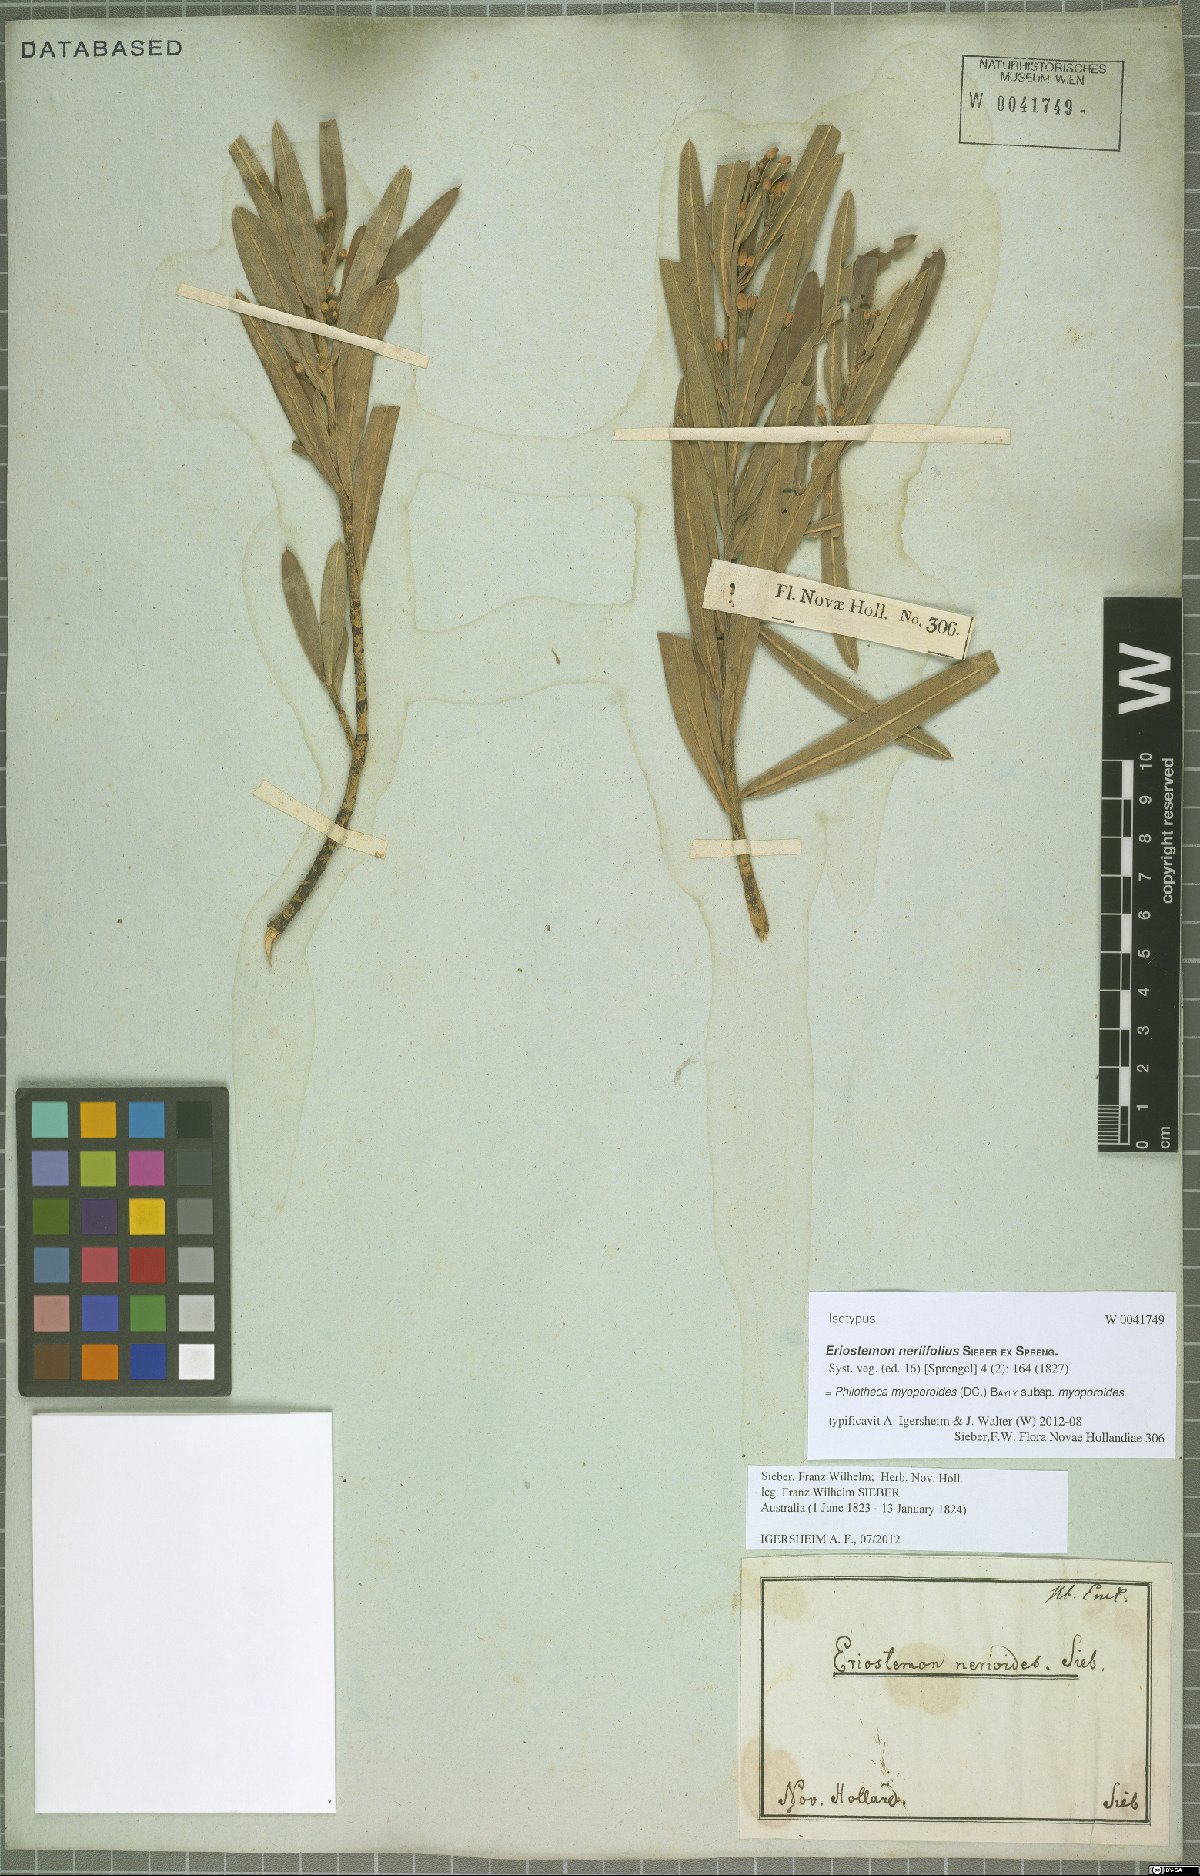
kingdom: Plantae
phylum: Tracheophyta
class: Magnoliopsida
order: Sapindales
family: Rutaceae
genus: Philotheca
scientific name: Philotheca myoporoides
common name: Longleaf waxflower
